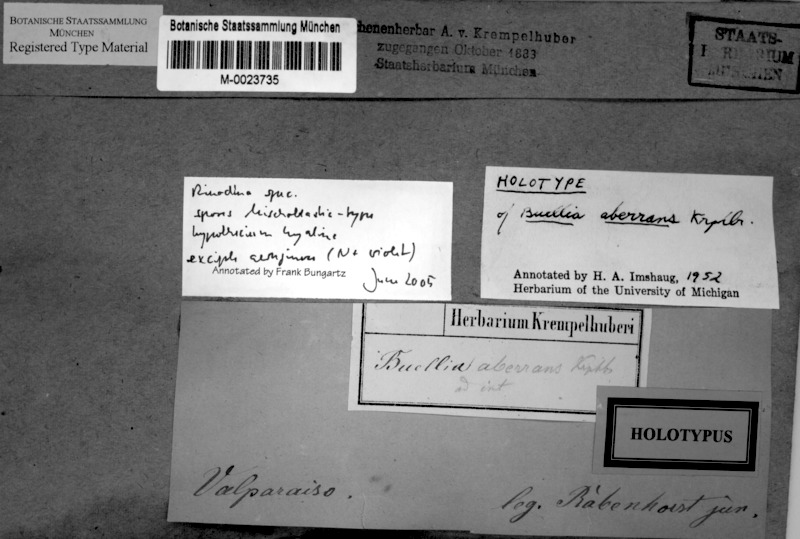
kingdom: Fungi
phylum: Ascomycota
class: Lecanoromycetes
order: Caliciales
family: Caliciaceae
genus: Buellia
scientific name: Buellia
